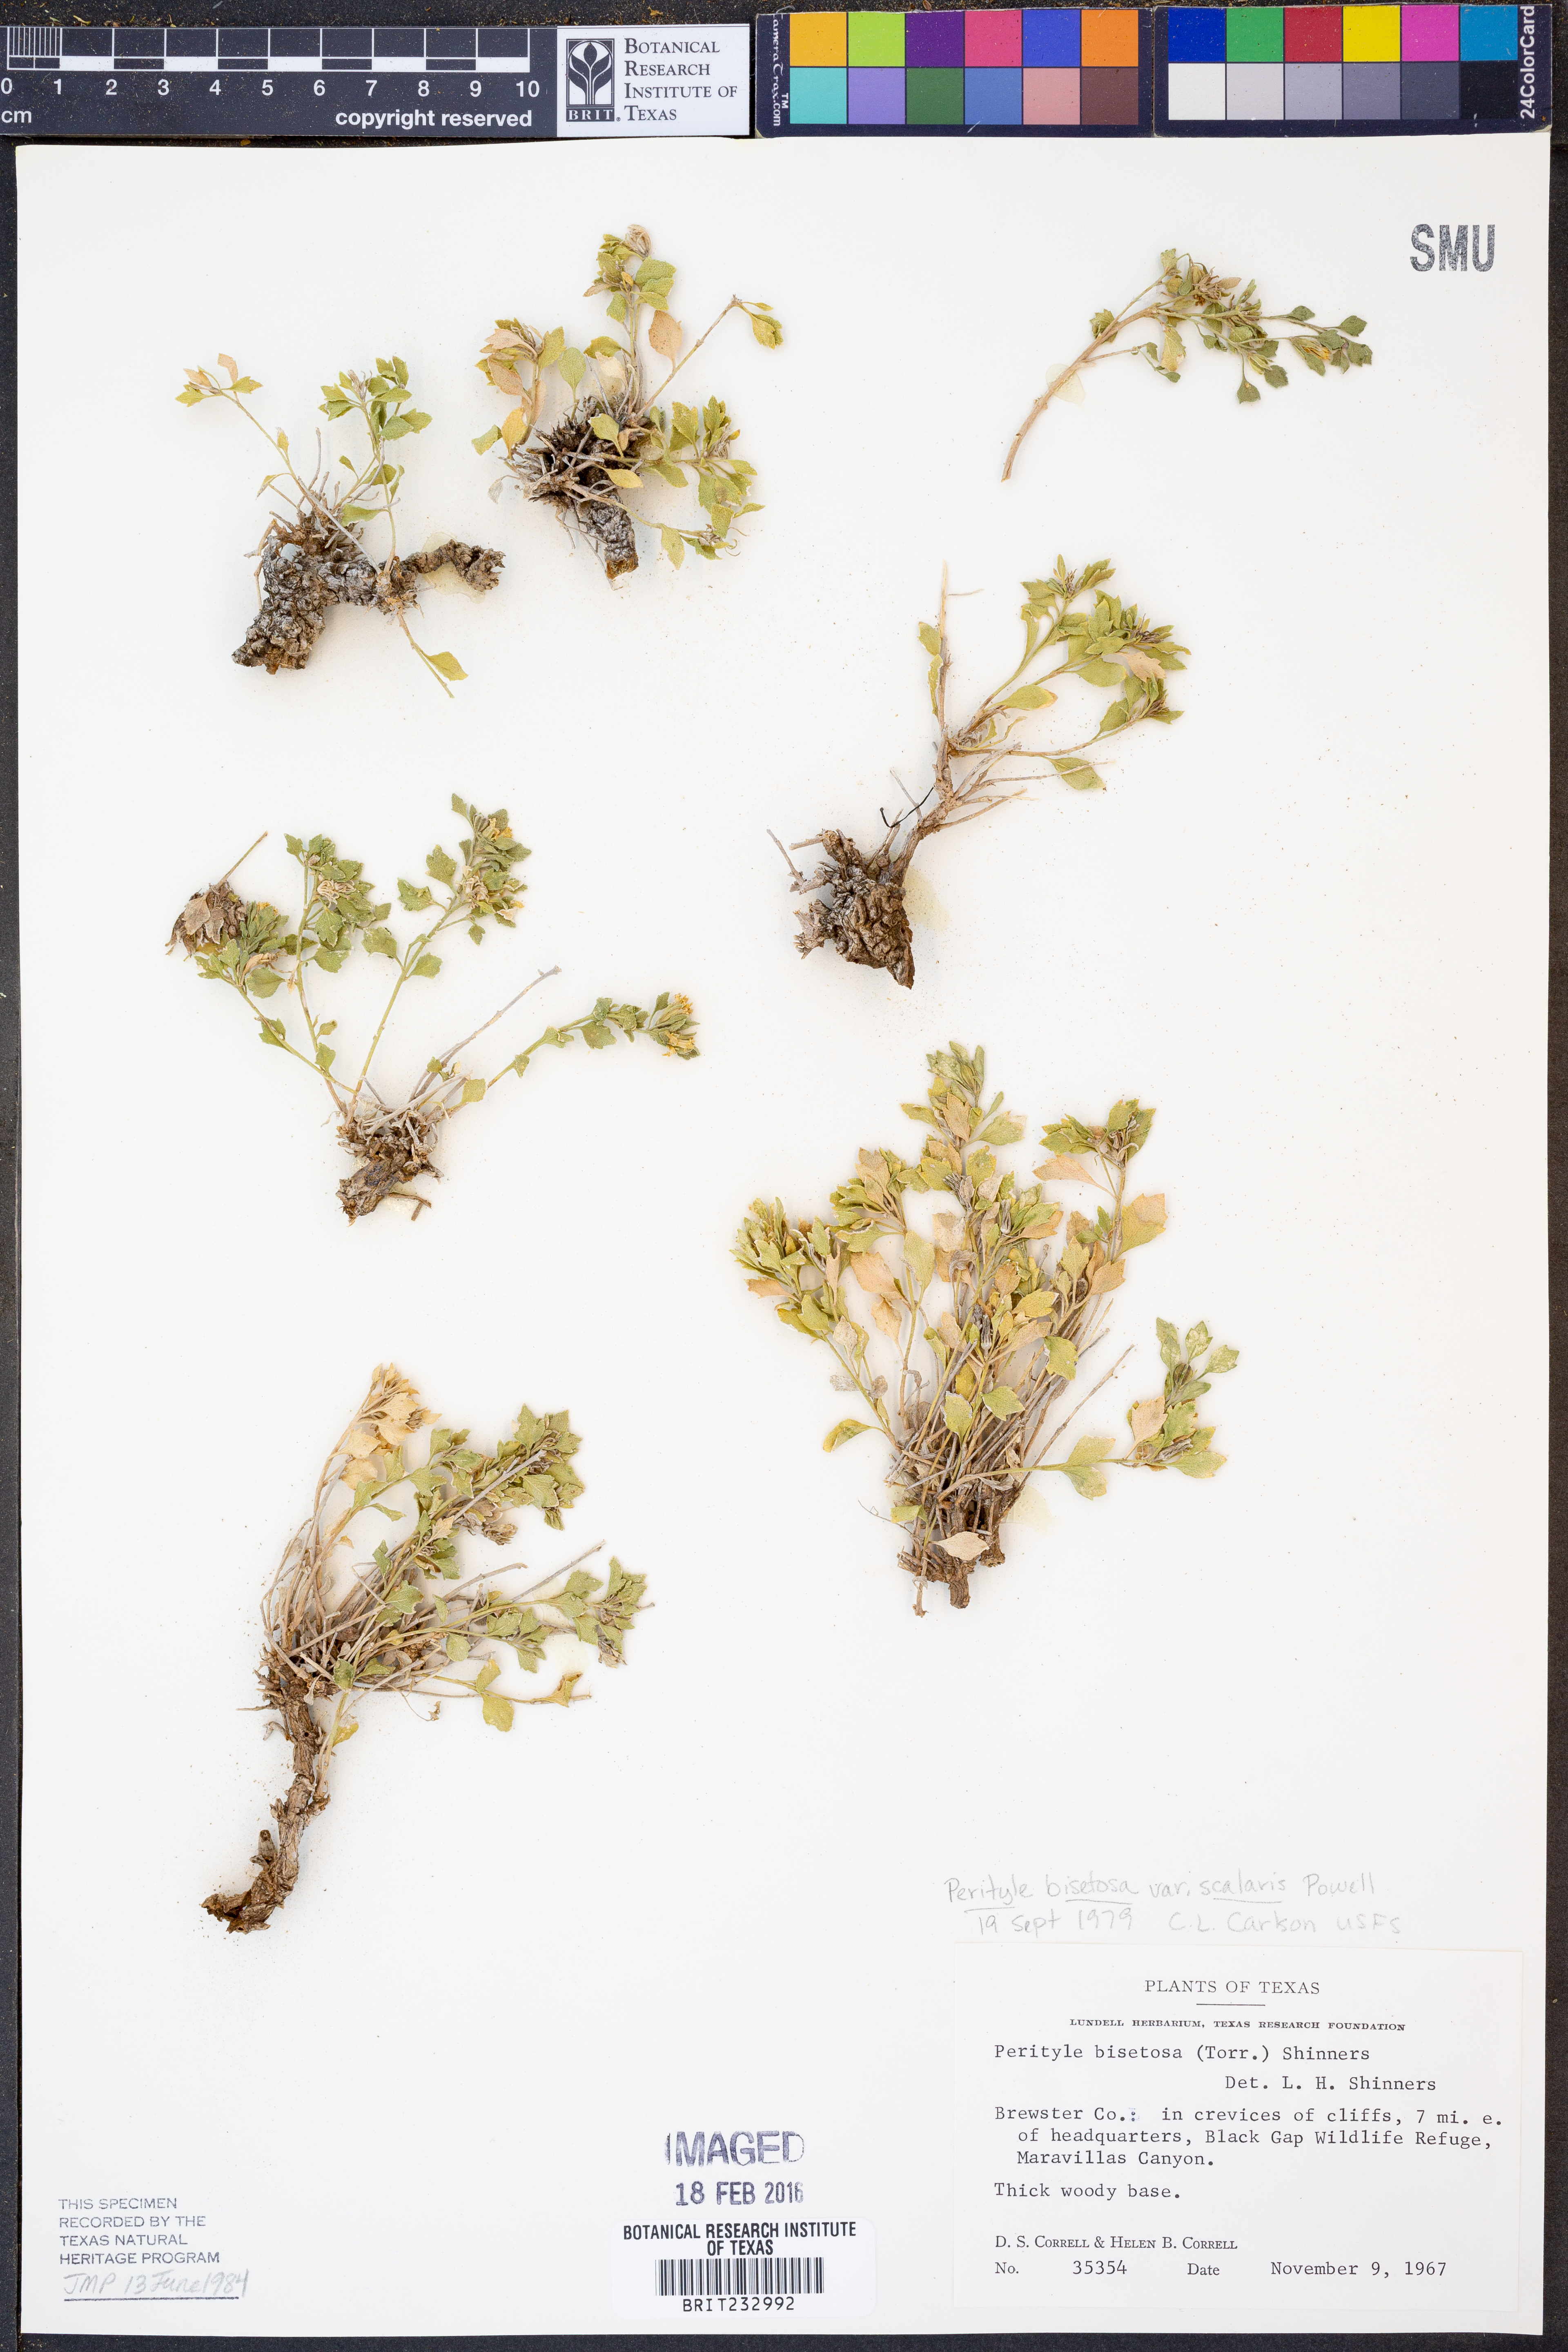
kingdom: Plantae
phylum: Tracheophyta
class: Magnoliopsida
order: Asterales
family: Asteraceae
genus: Laphamia
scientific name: Laphamia bisetosa
